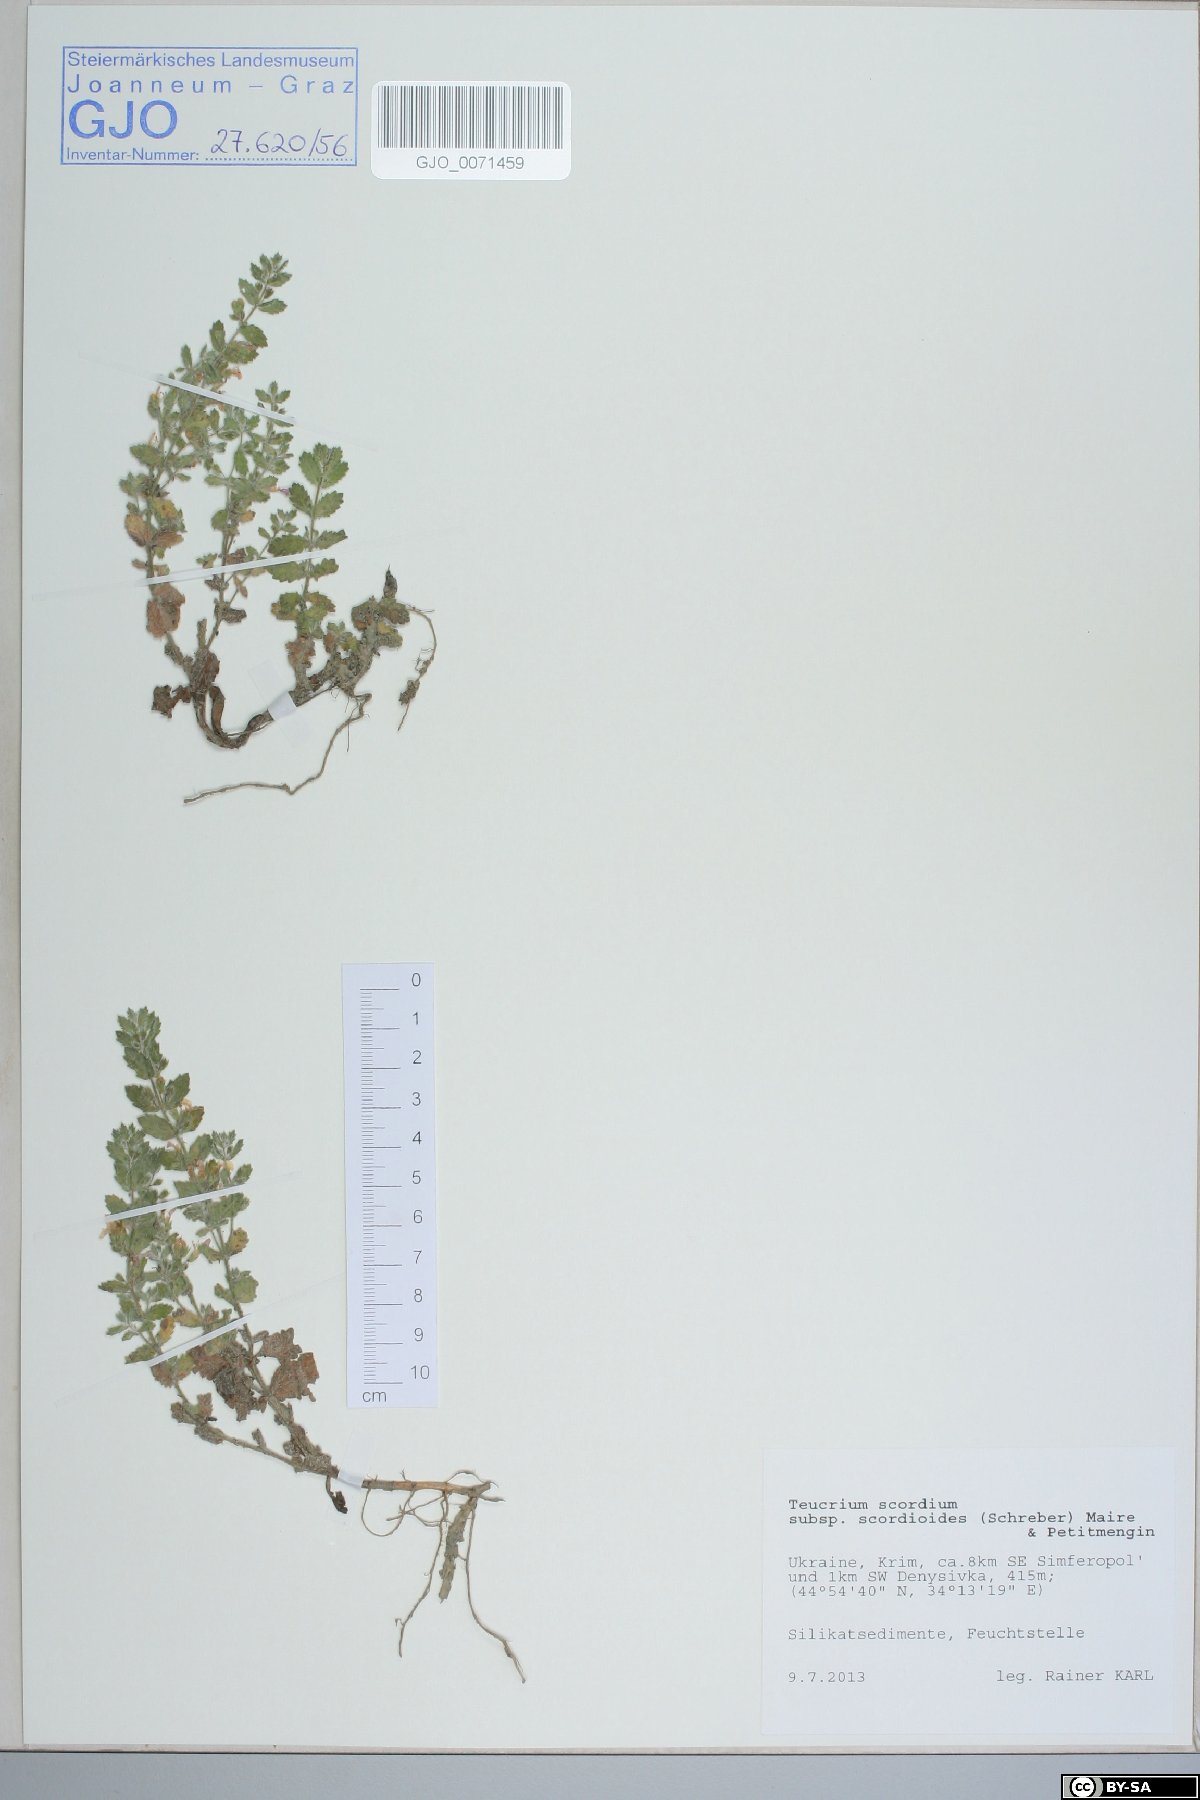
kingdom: Plantae
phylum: Tracheophyta
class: Magnoliopsida
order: Lamiales
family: Lamiaceae
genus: Teucrium
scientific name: Teucrium scordium
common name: Water germander
